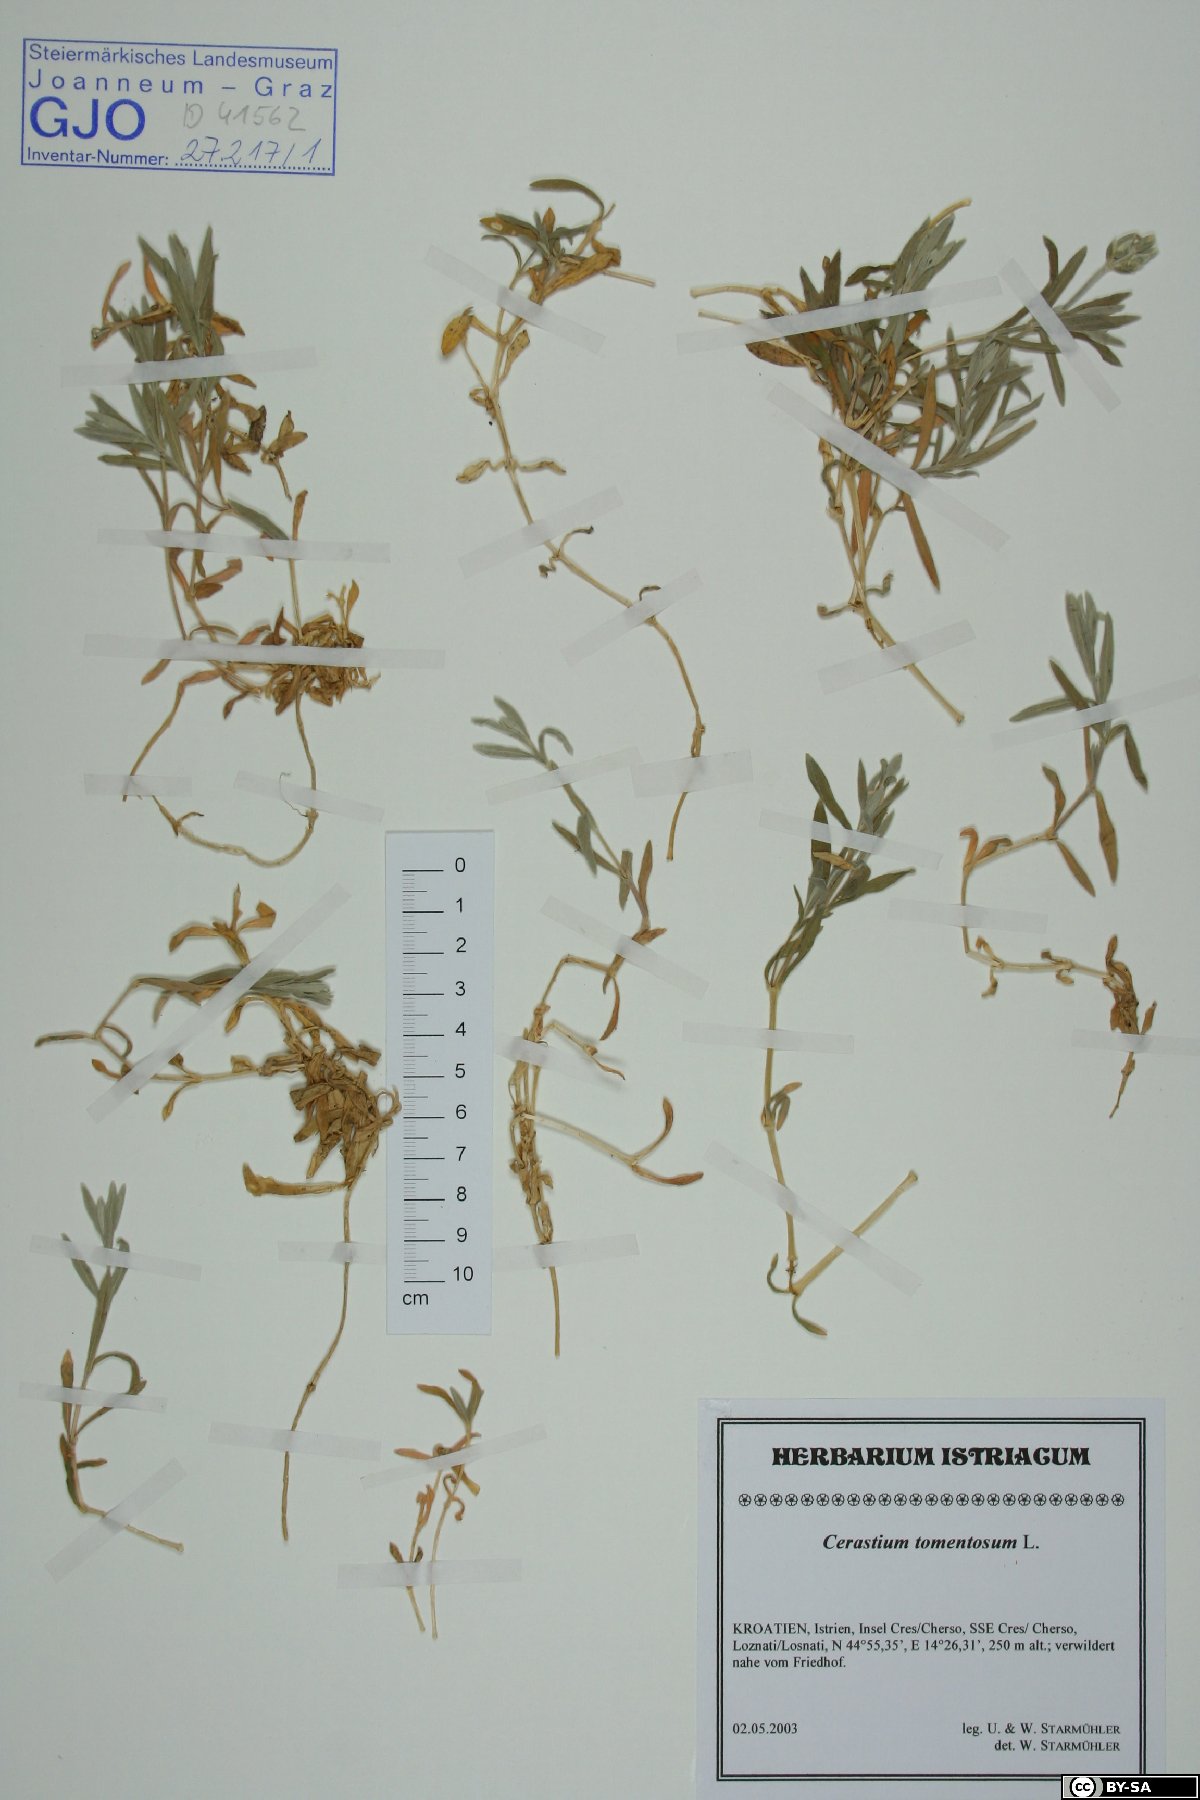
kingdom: Plantae
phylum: Tracheophyta
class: Magnoliopsida
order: Caryophyllales
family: Caryophyllaceae
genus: Cerastium
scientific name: Cerastium tomentosum
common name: Snow-in-summer
